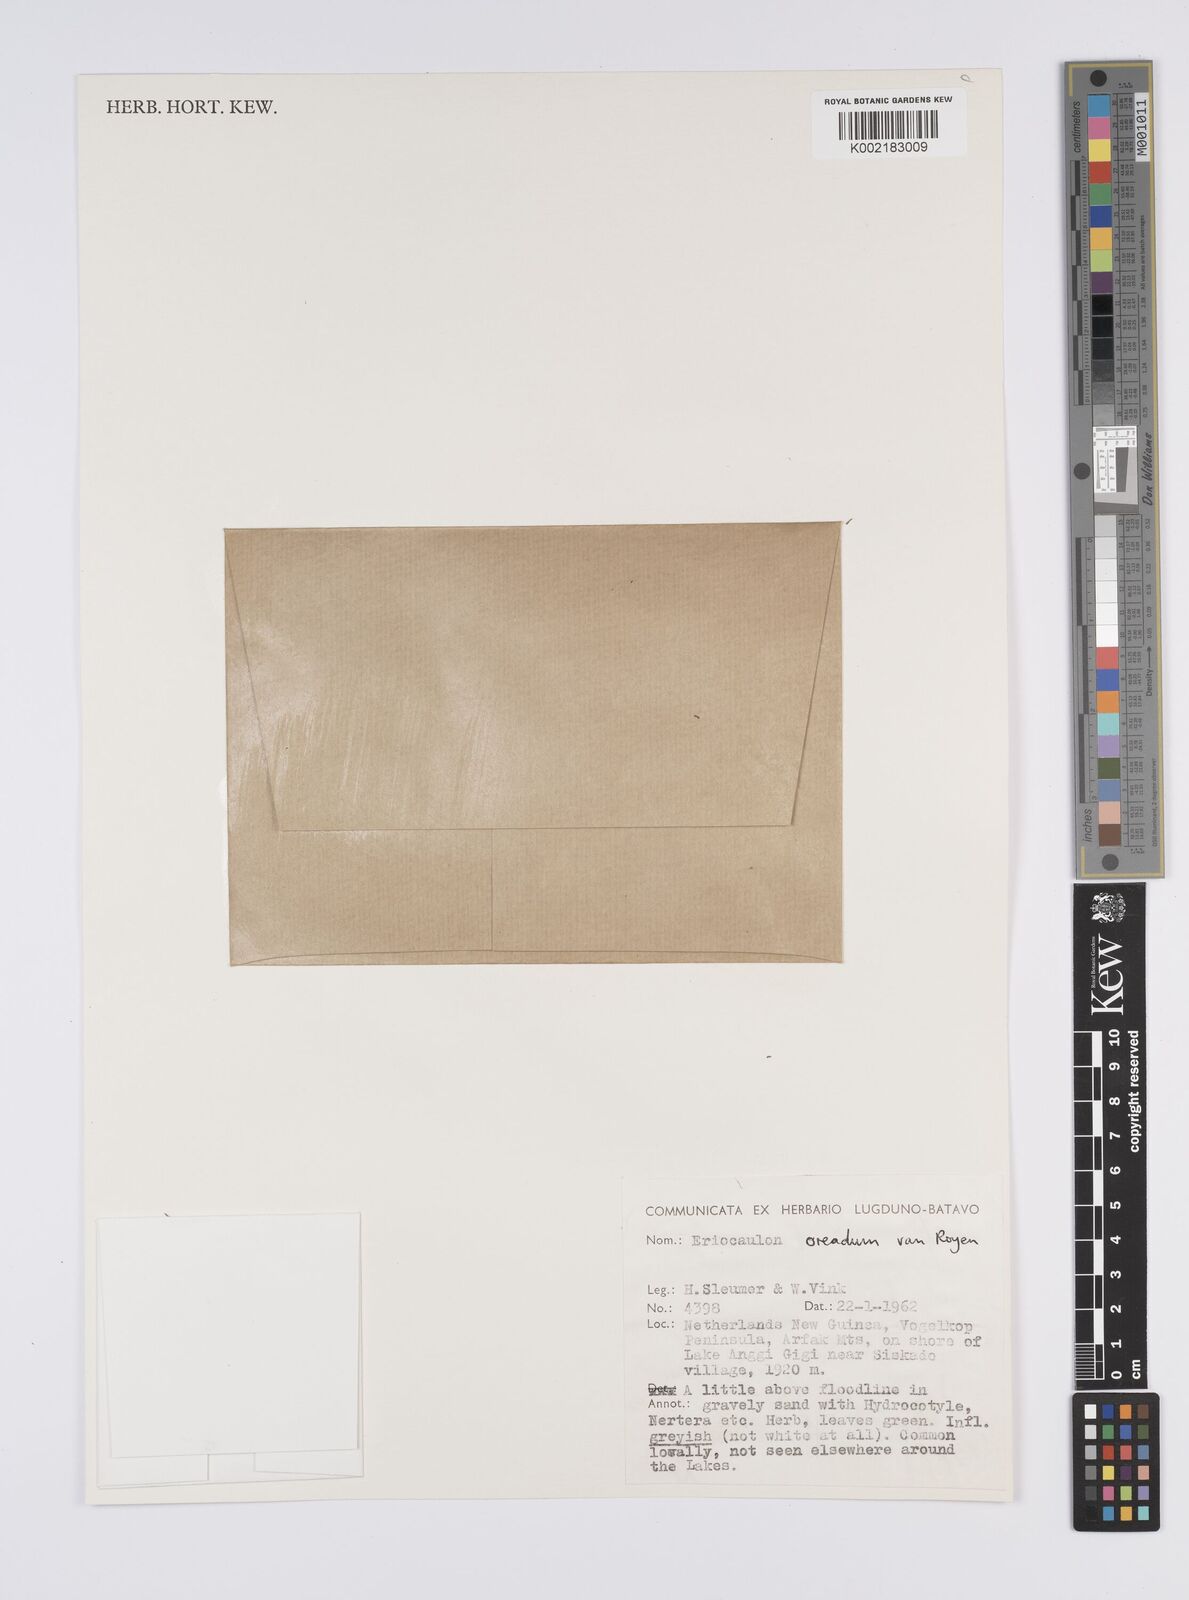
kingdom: Plantae
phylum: Tracheophyta
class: Liliopsida
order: Poales
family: Eriocaulaceae
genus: Eriocaulon
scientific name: Eriocaulon oreadum
